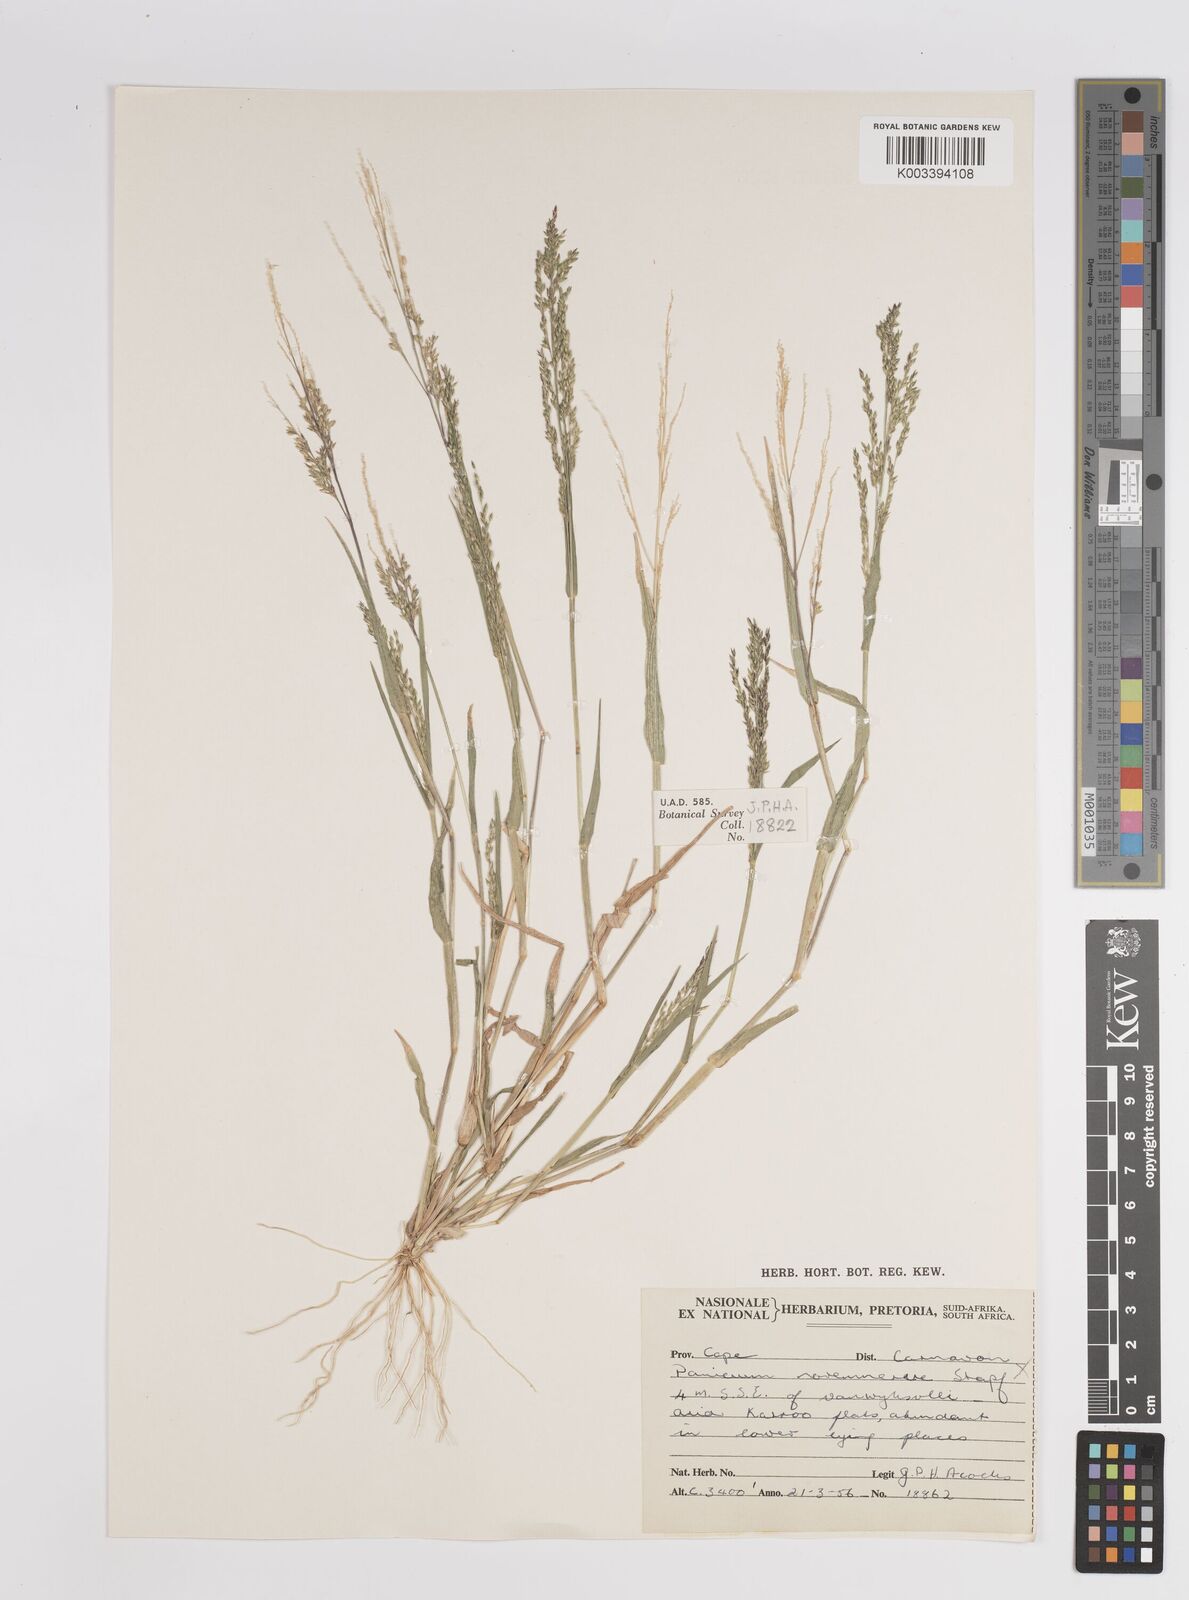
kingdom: Plantae
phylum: Tracheophyta
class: Liliopsida
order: Poales
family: Poaceae
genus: Panicum
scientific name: Panicum impeditum
